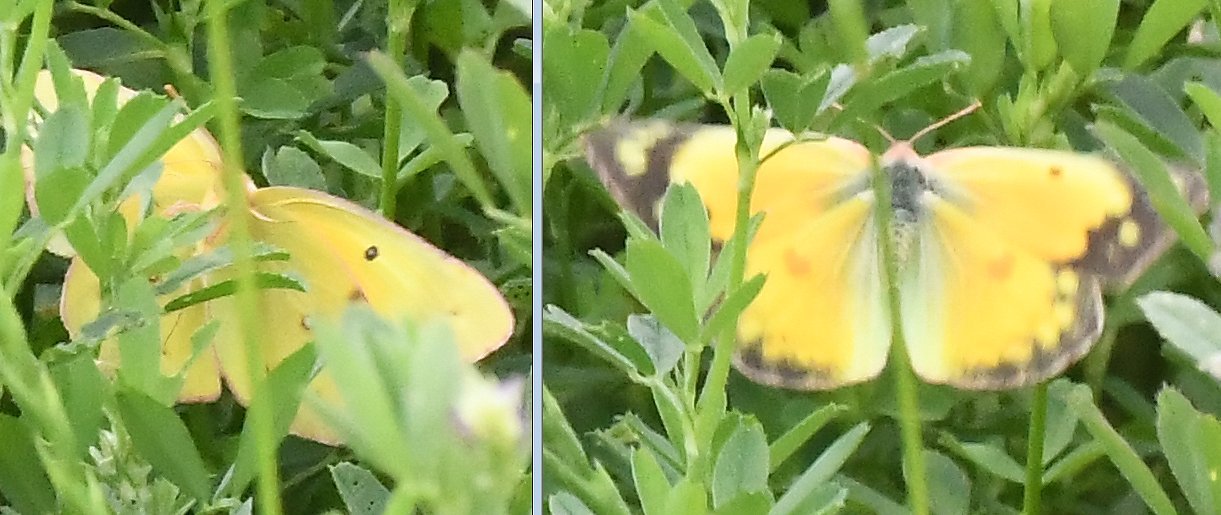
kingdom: Animalia
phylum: Arthropoda
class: Insecta
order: Lepidoptera
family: Pieridae
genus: Colias
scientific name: Colias eurytheme
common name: Orange Sulphur
